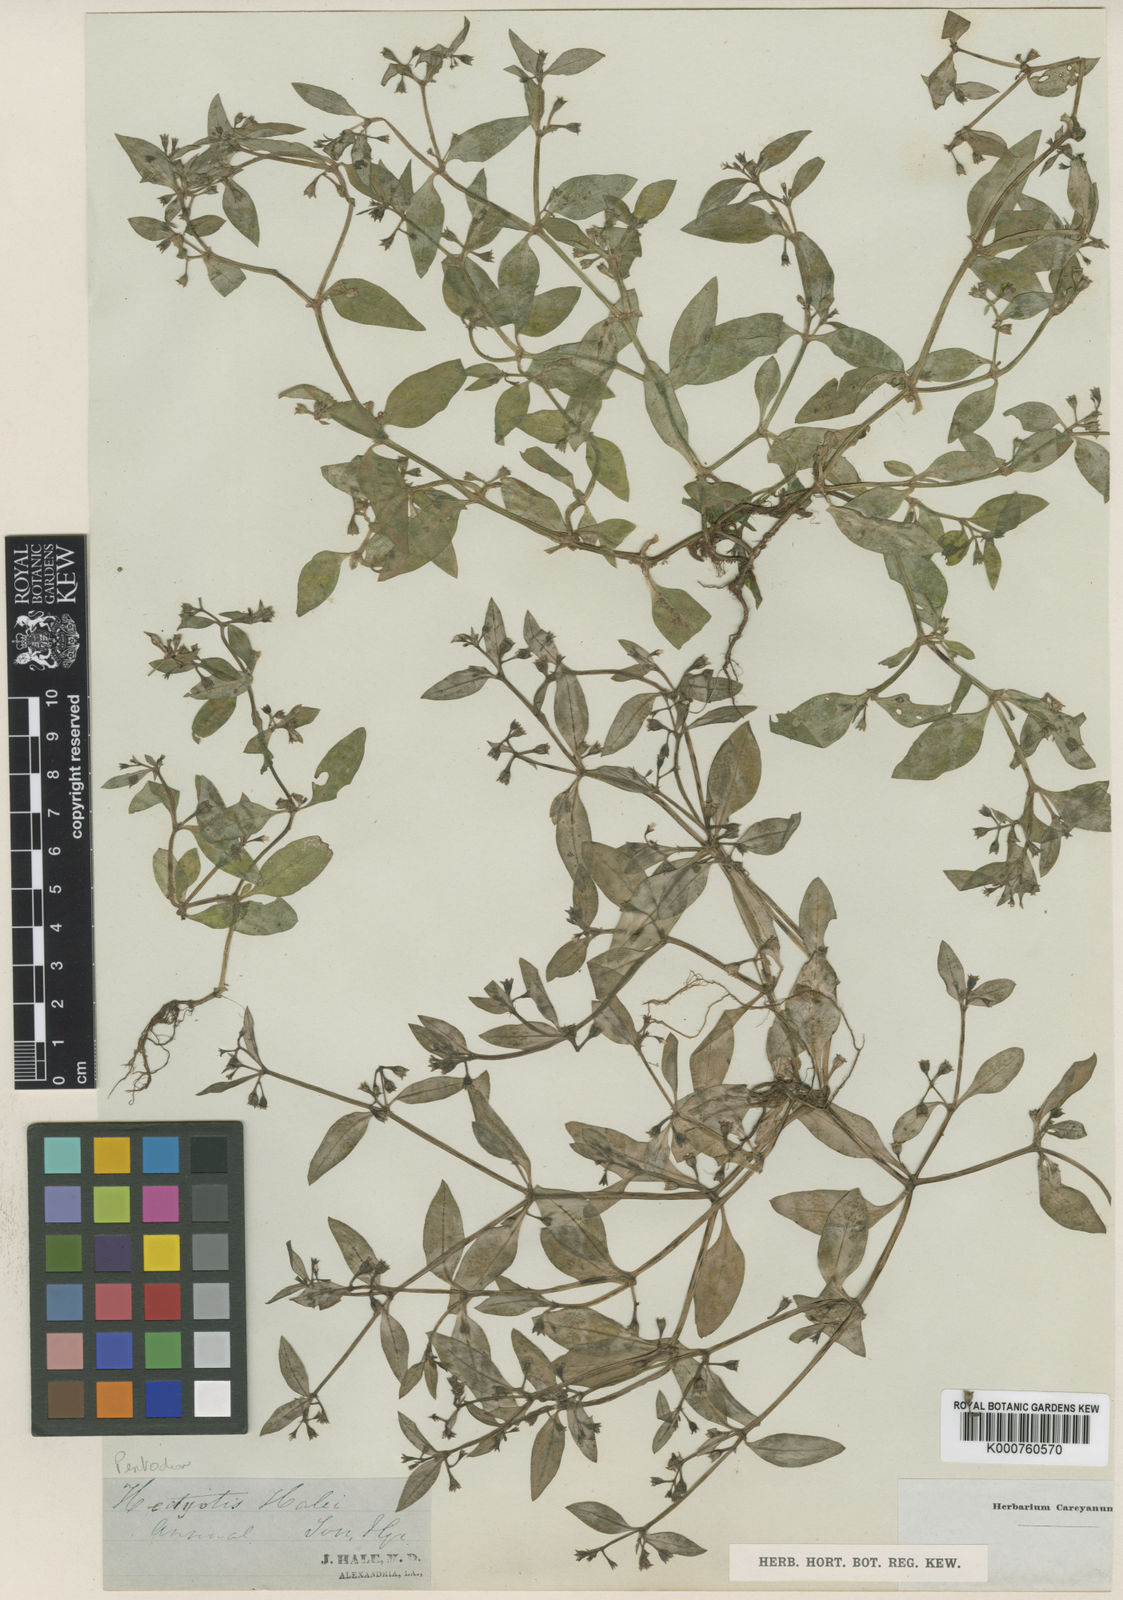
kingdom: Plantae
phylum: Tracheophyta
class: Magnoliopsida
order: Gentianales
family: Rubiaceae
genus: Pentodon
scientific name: Pentodon pentandrus
